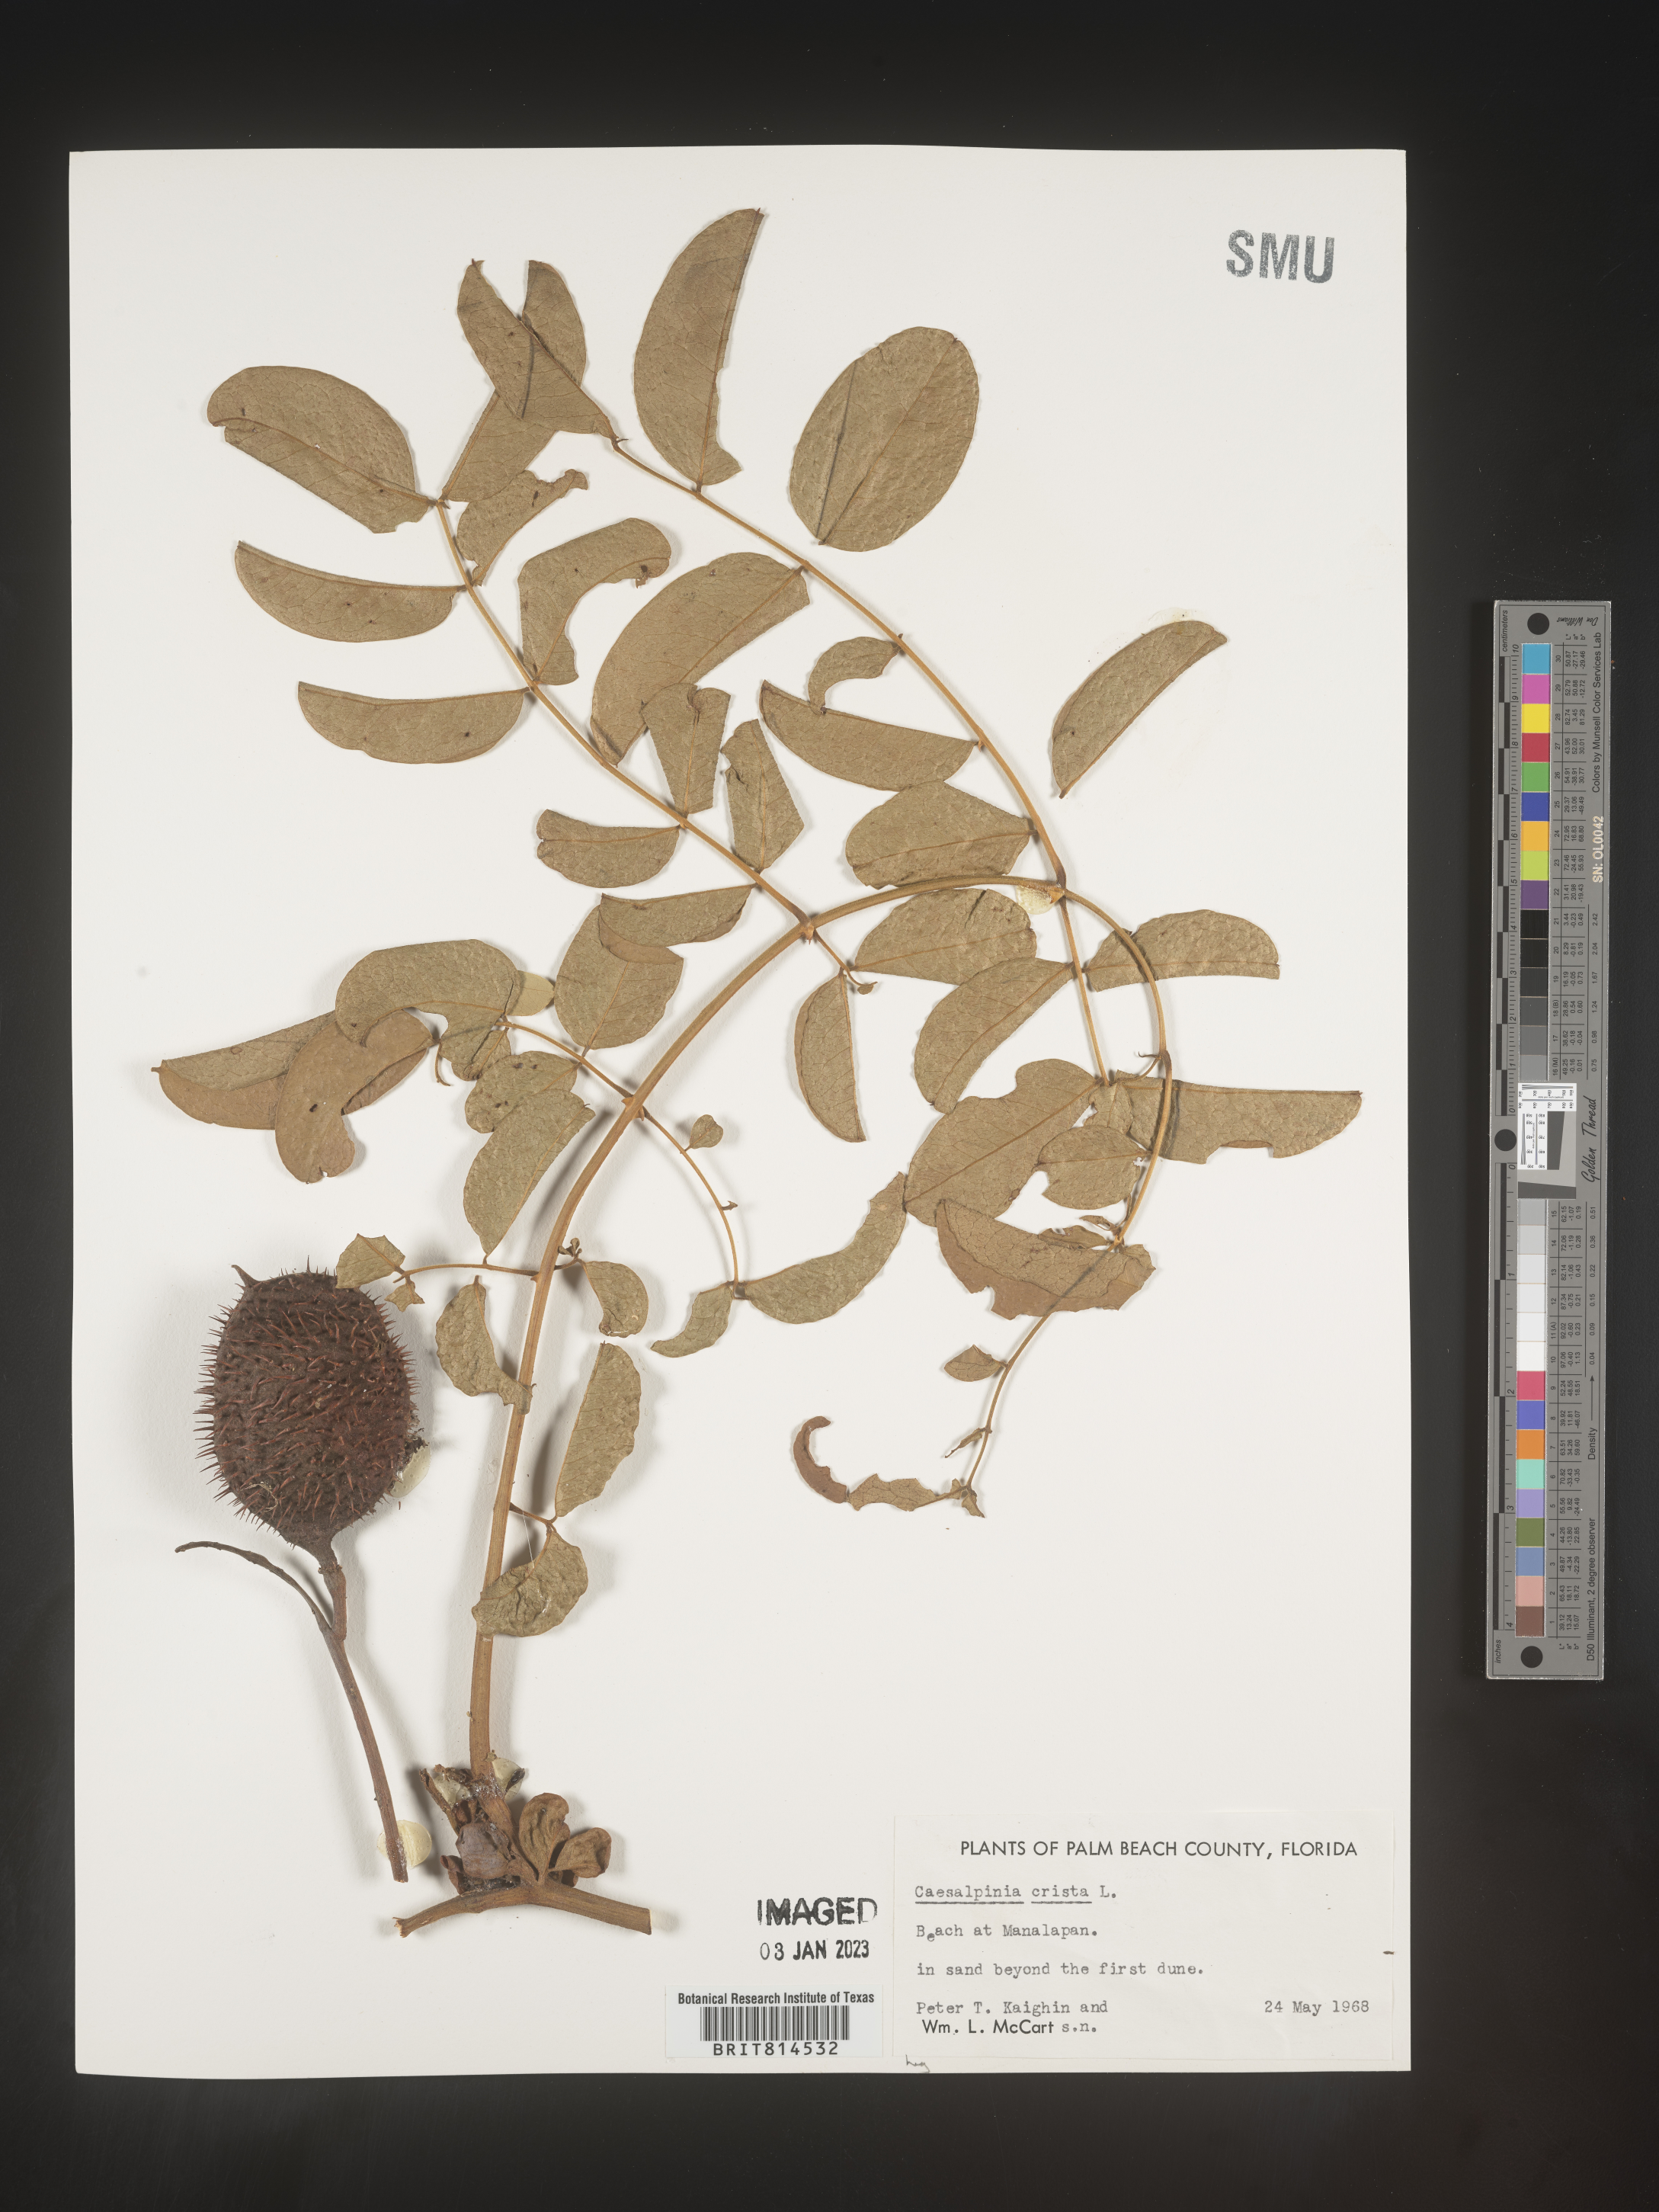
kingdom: Plantae
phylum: Tracheophyta
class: Magnoliopsida
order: Fabales
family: Fabaceae
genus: Caesalpinia
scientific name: Caesalpinia
